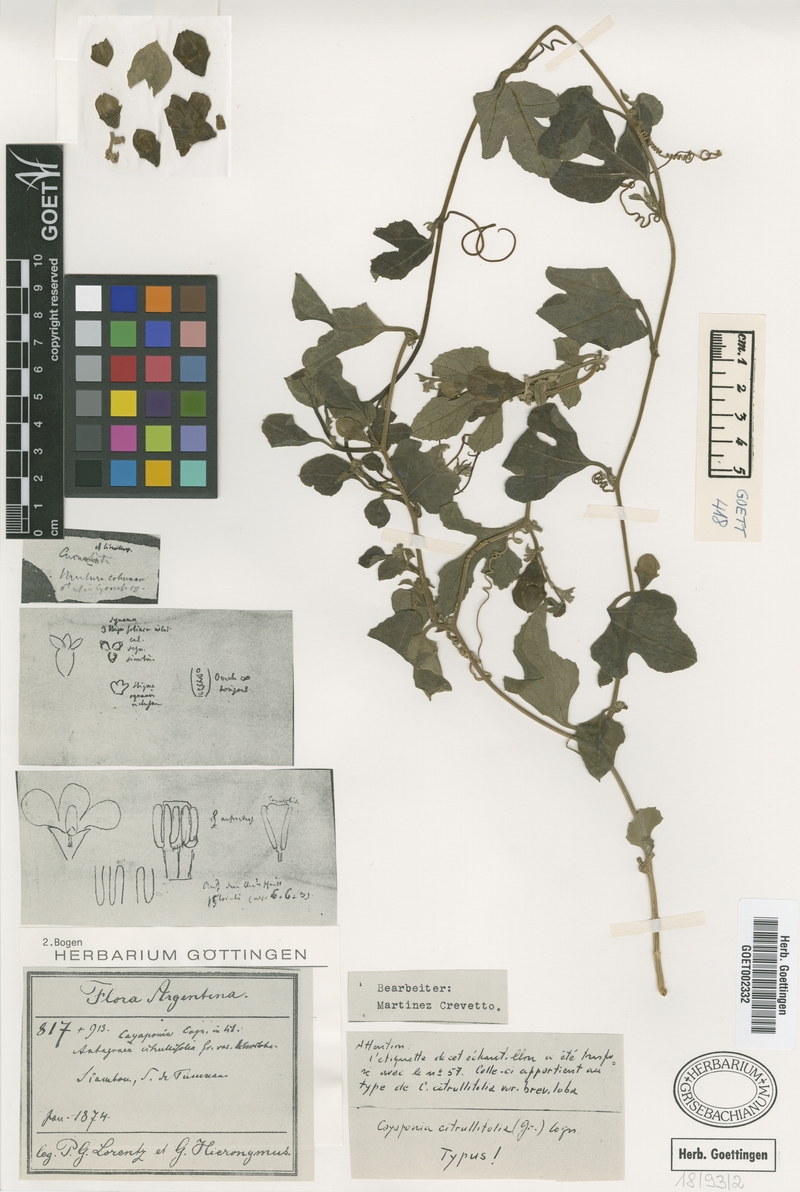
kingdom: Plantae
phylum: Tracheophyta
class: Magnoliopsida
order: Cucurbitales
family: Cucurbitaceae
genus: Cayaponia
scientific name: Cayaponia citrullifolia
